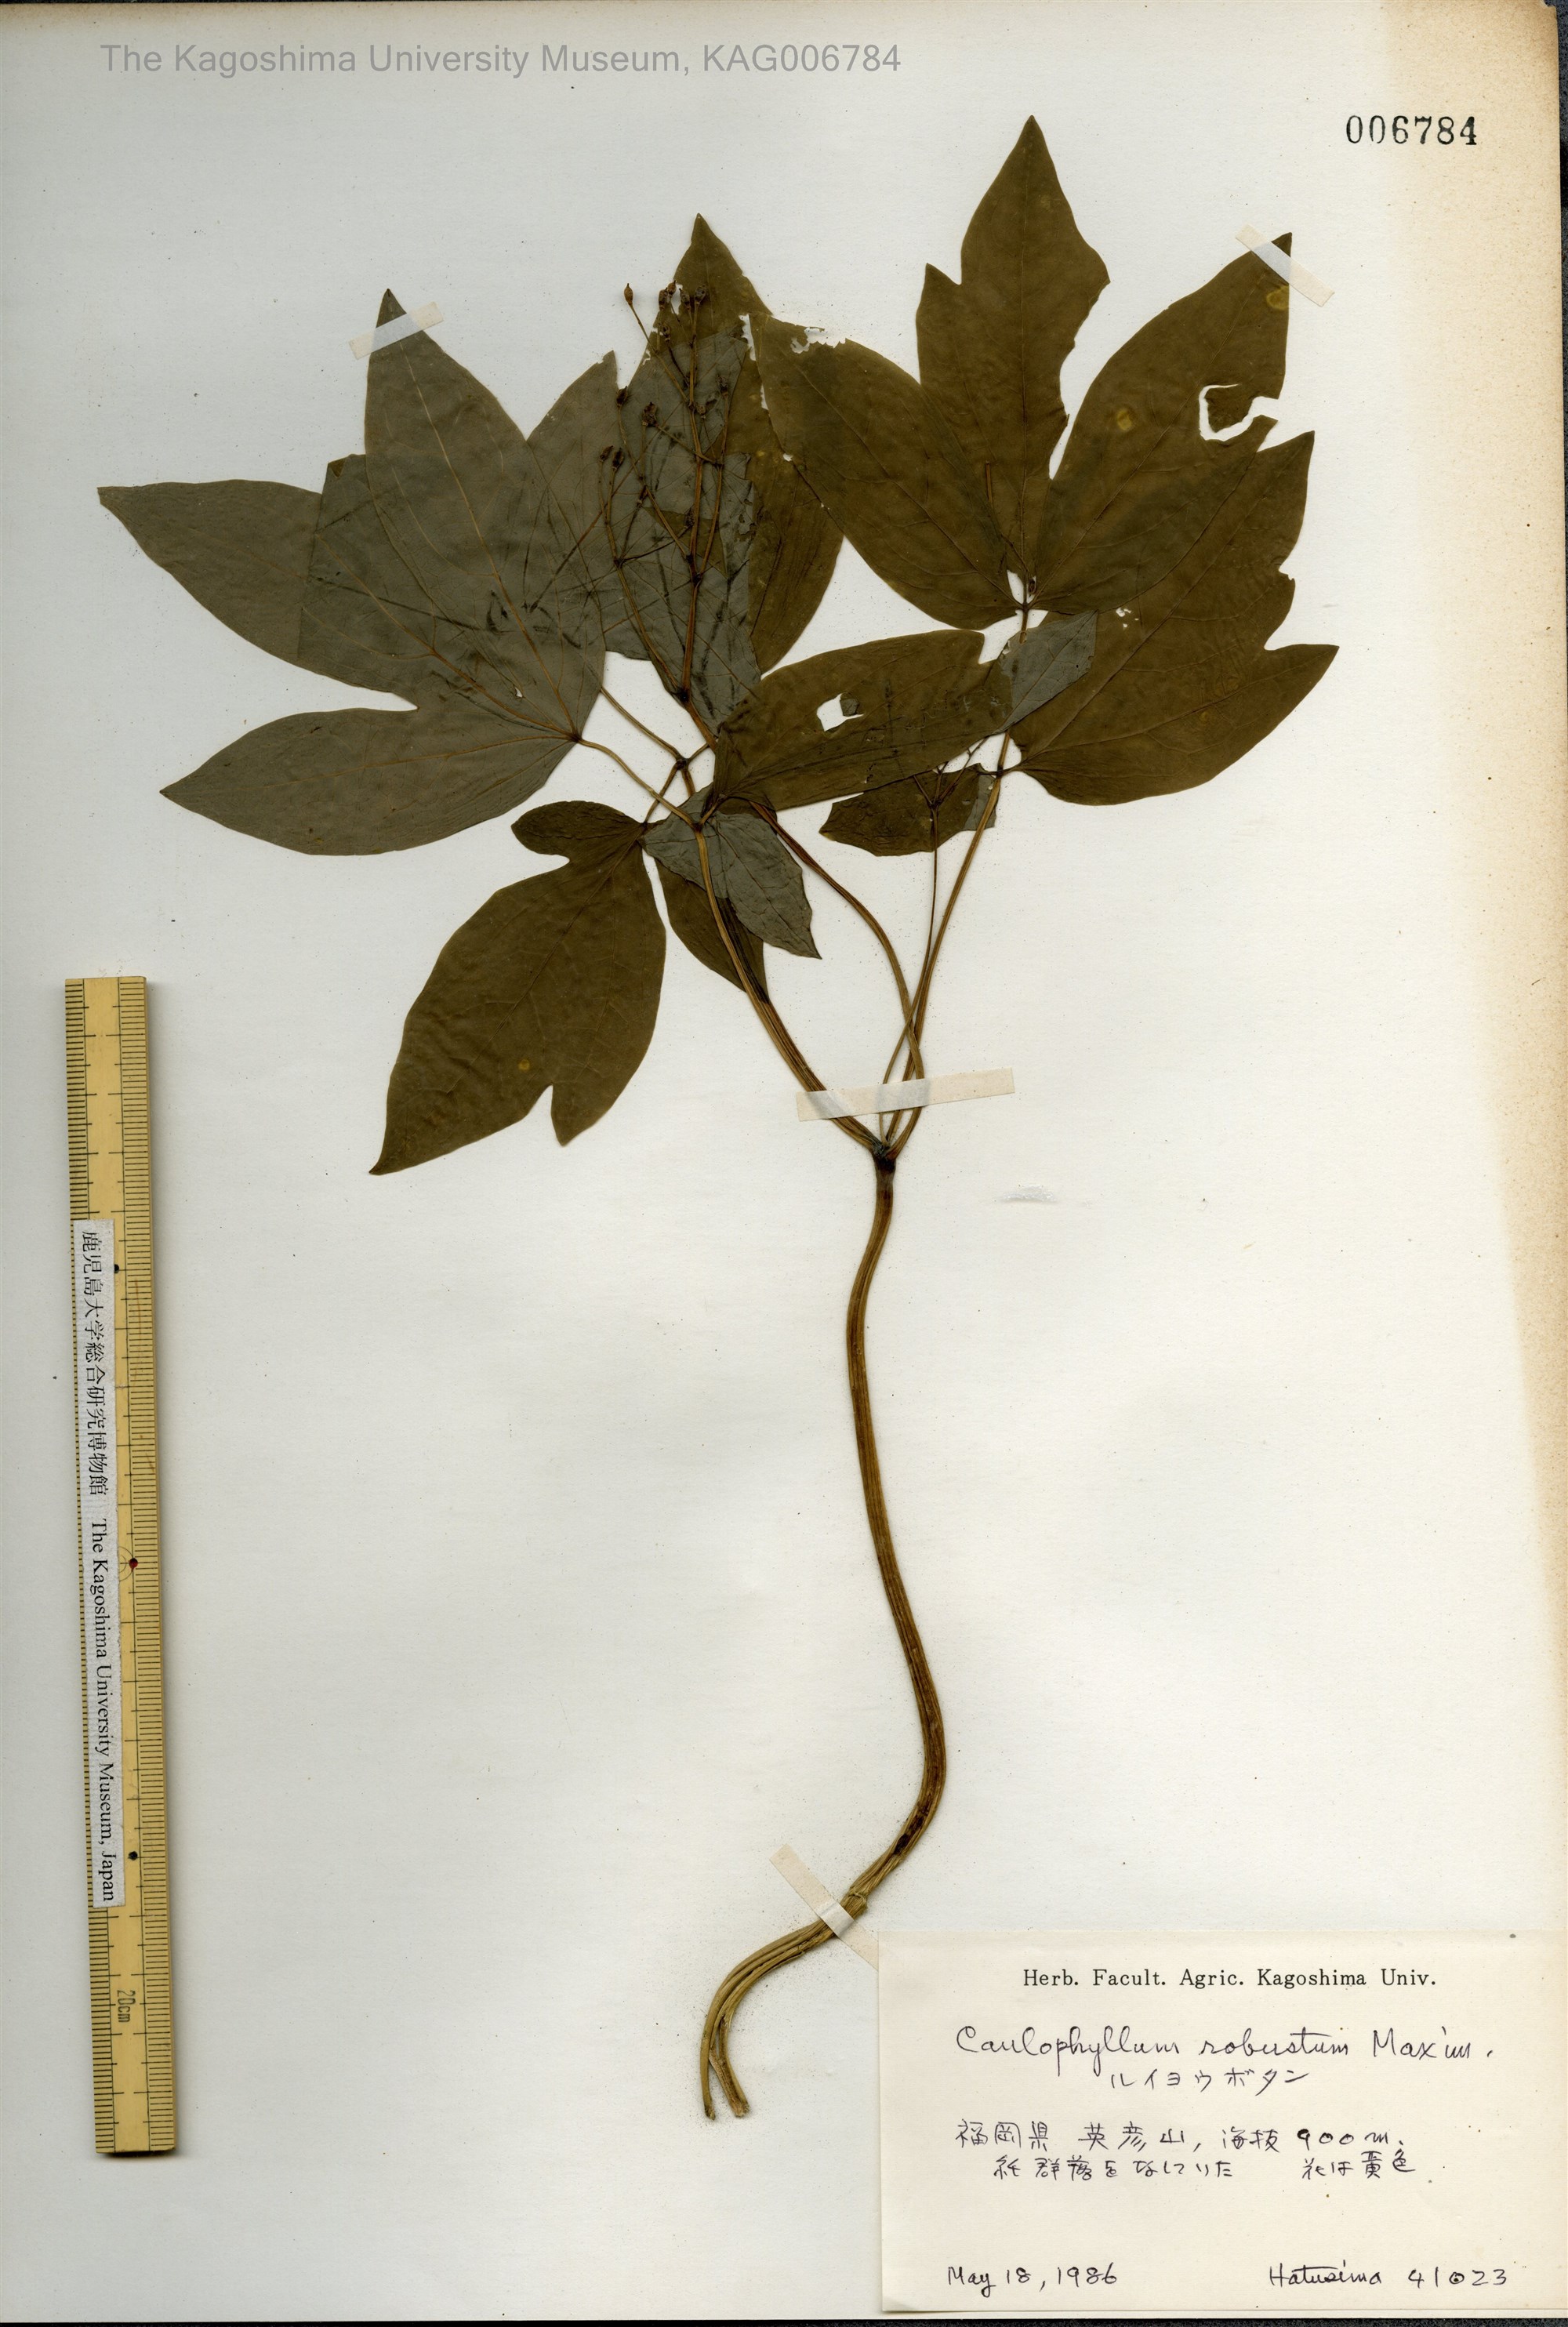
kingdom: Plantae
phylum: Tracheophyta
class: Magnoliopsida
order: Ranunculales
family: Berberidaceae
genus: Caulophyllum
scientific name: Caulophyllum robustum
